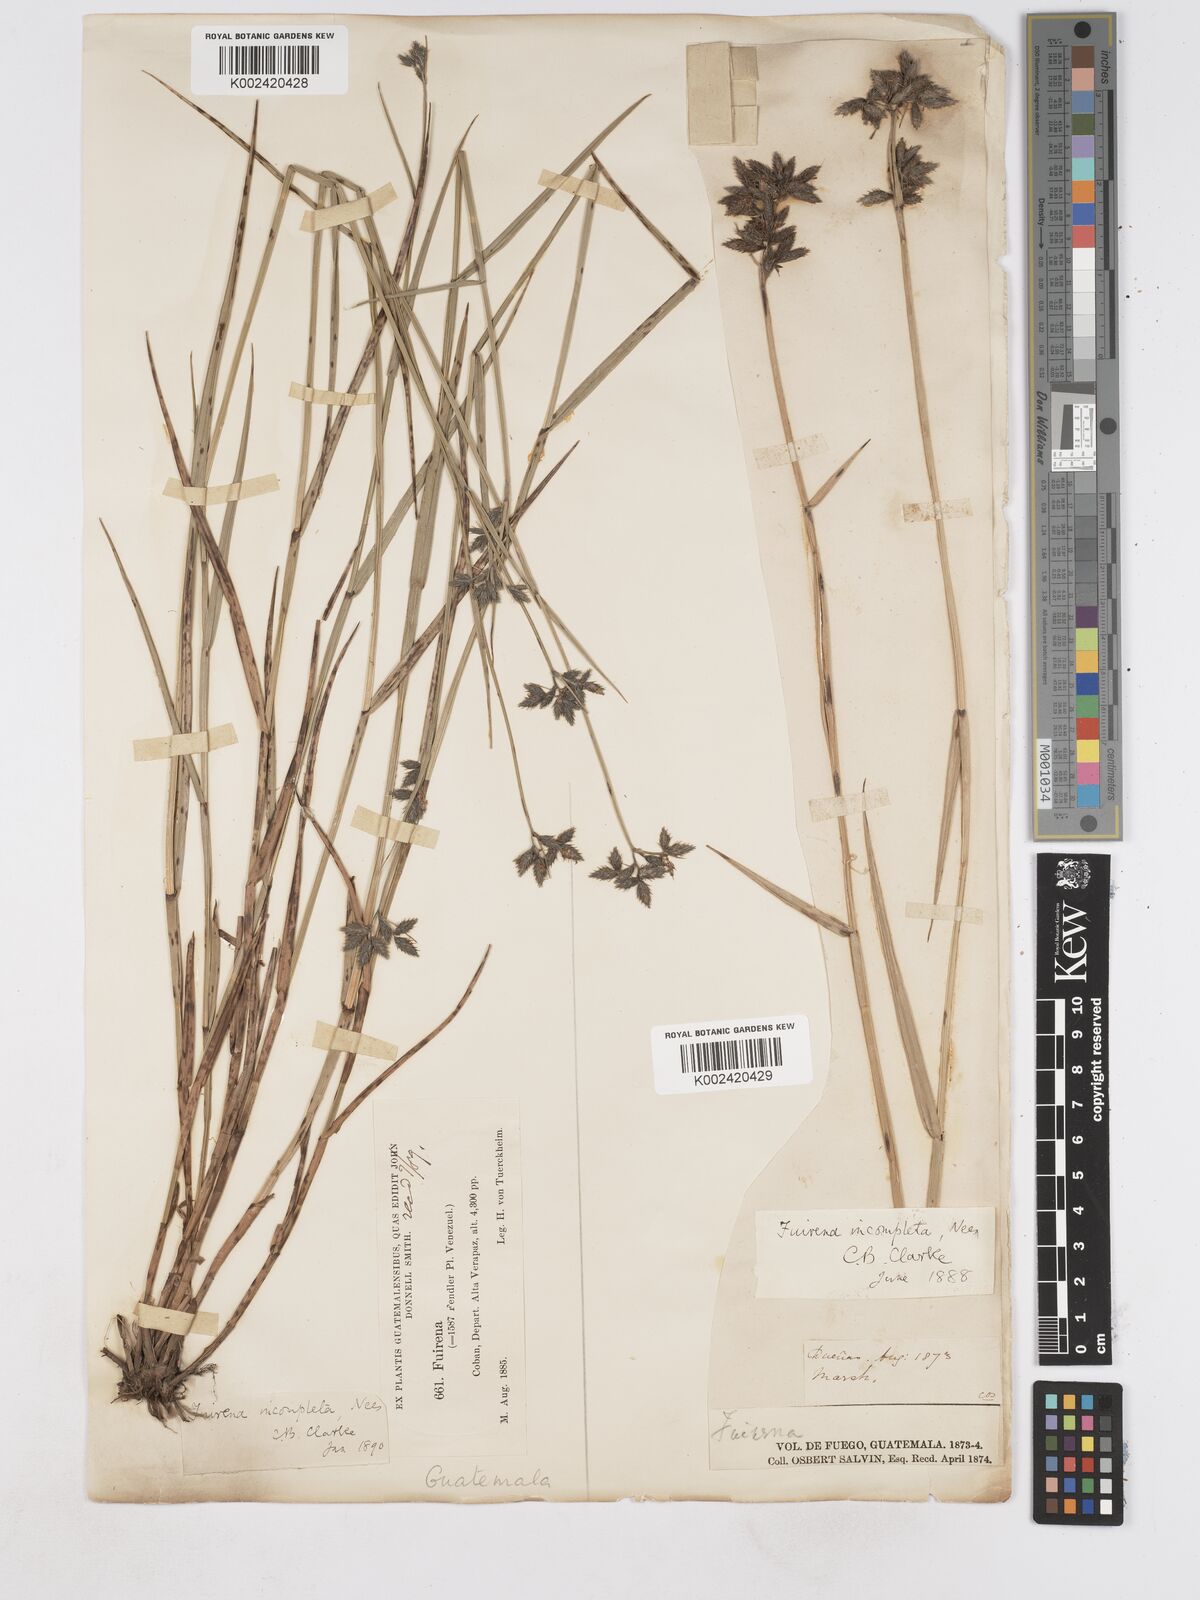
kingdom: Plantae
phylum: Tracheophyta
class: Liliopsida
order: Poales
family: Cyperaceae
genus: Fuirena
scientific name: Fuirena incompleta
